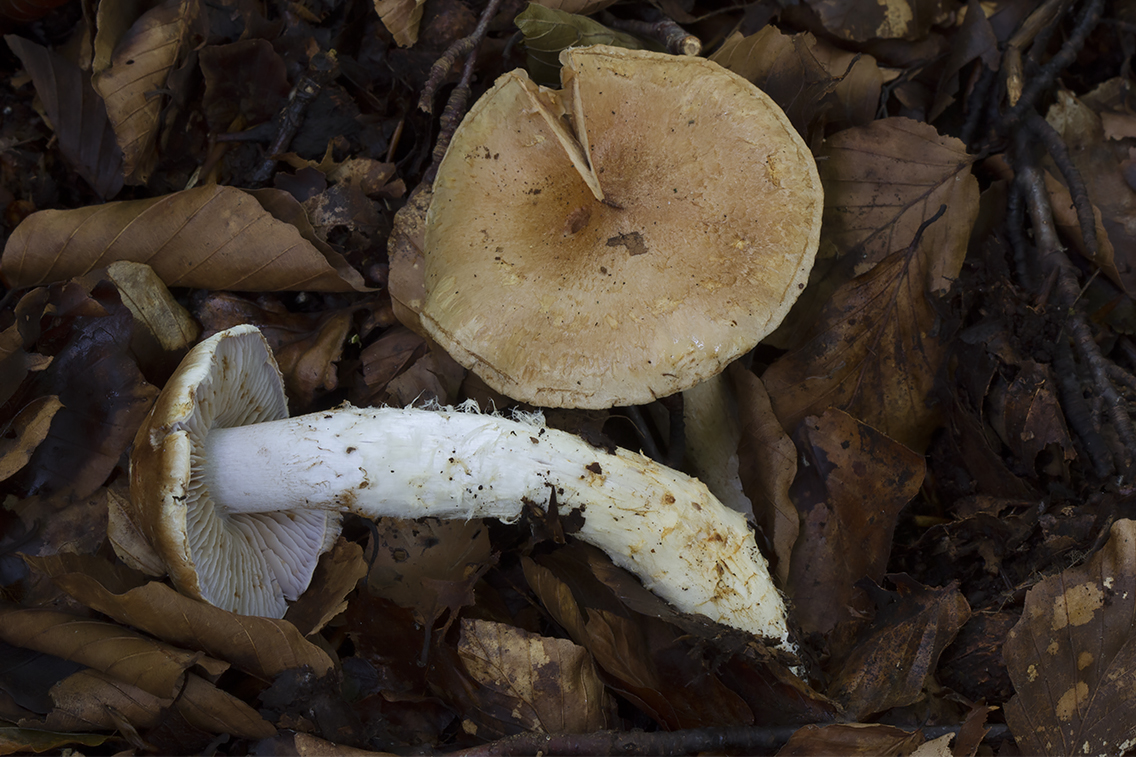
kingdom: Fungi
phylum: Basidiomycota
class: Agaricomycetes
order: Agaricales
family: Cortinariaceae
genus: Phlegmacium
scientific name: Phlegmacium vulpinum
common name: ringbæltet slørhat
